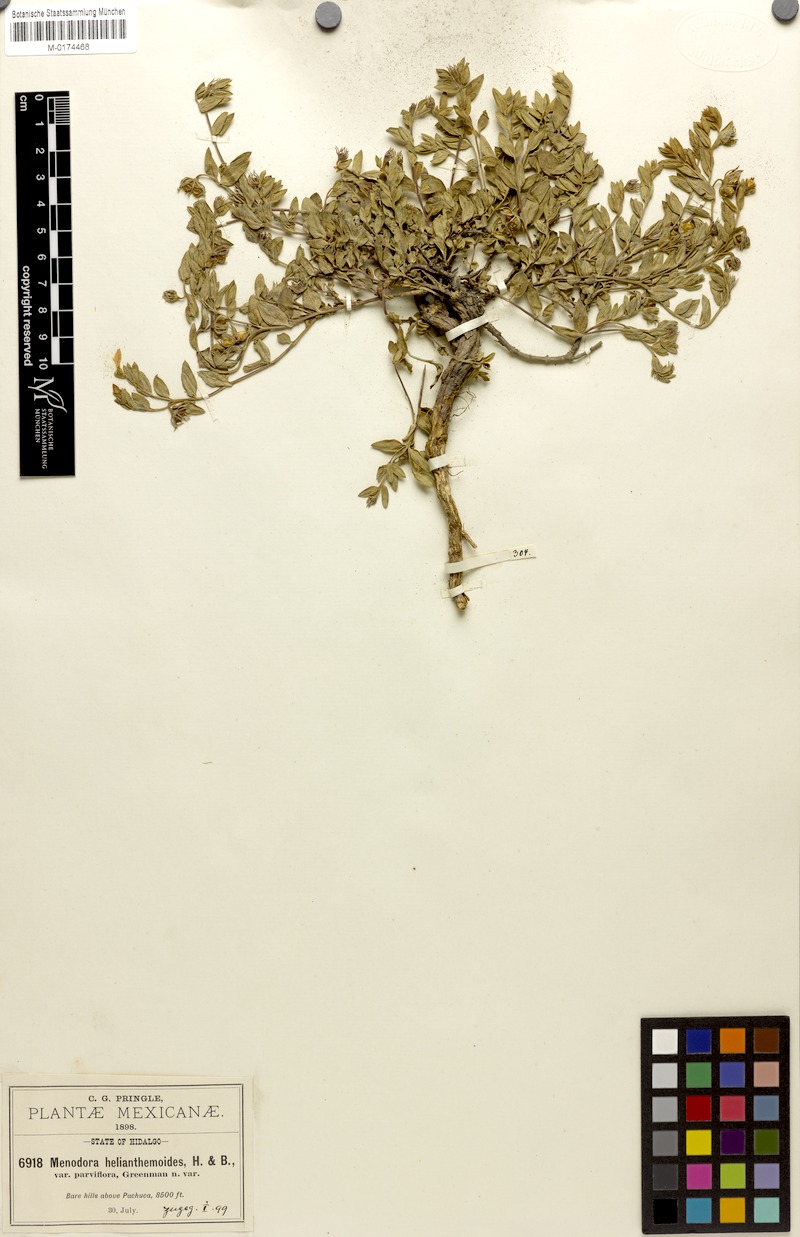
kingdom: Plantae
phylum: Tracheophyta
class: Magnoliopsida
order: Lamiales
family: Oleaceae
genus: Menodora
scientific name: Menodora helianthemoides
